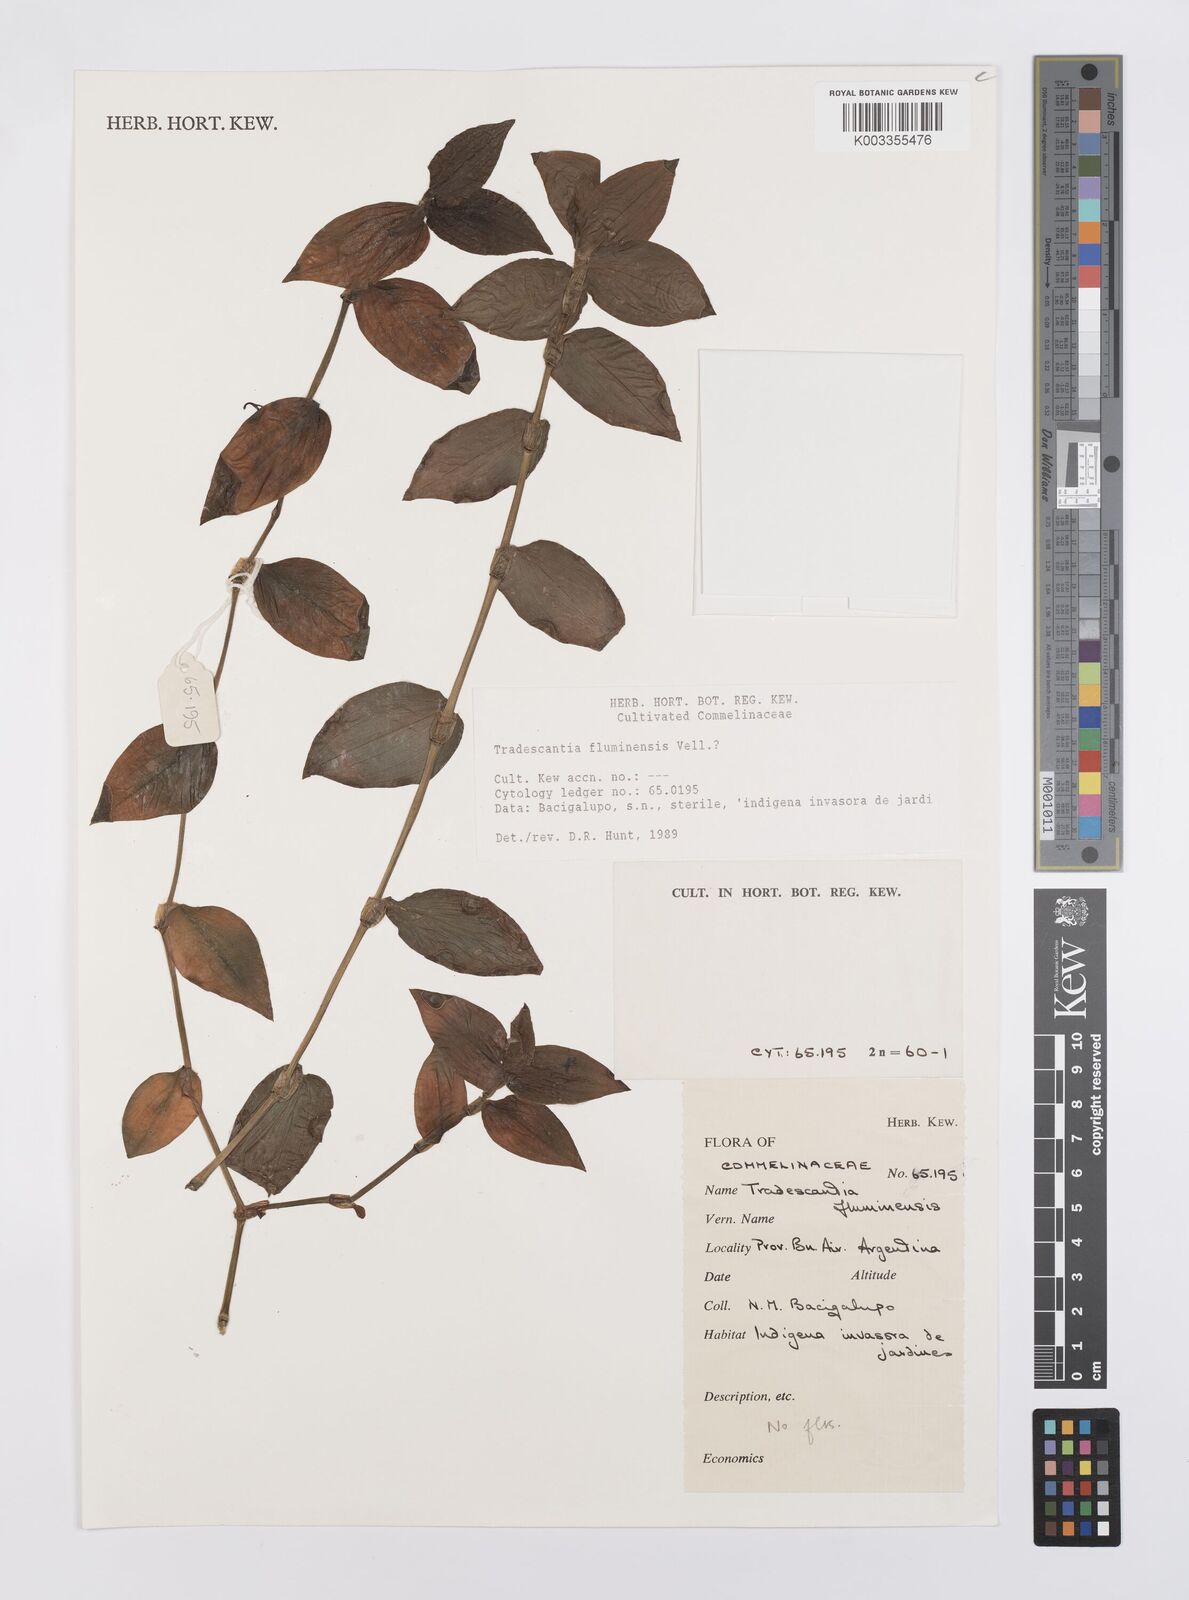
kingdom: Plantae
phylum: Tracheophyta
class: Liliopsida
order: Commelinales
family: Commelinaceae
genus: Tradescantia
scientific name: Tradescantia fluminensis
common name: Wandering-jew
